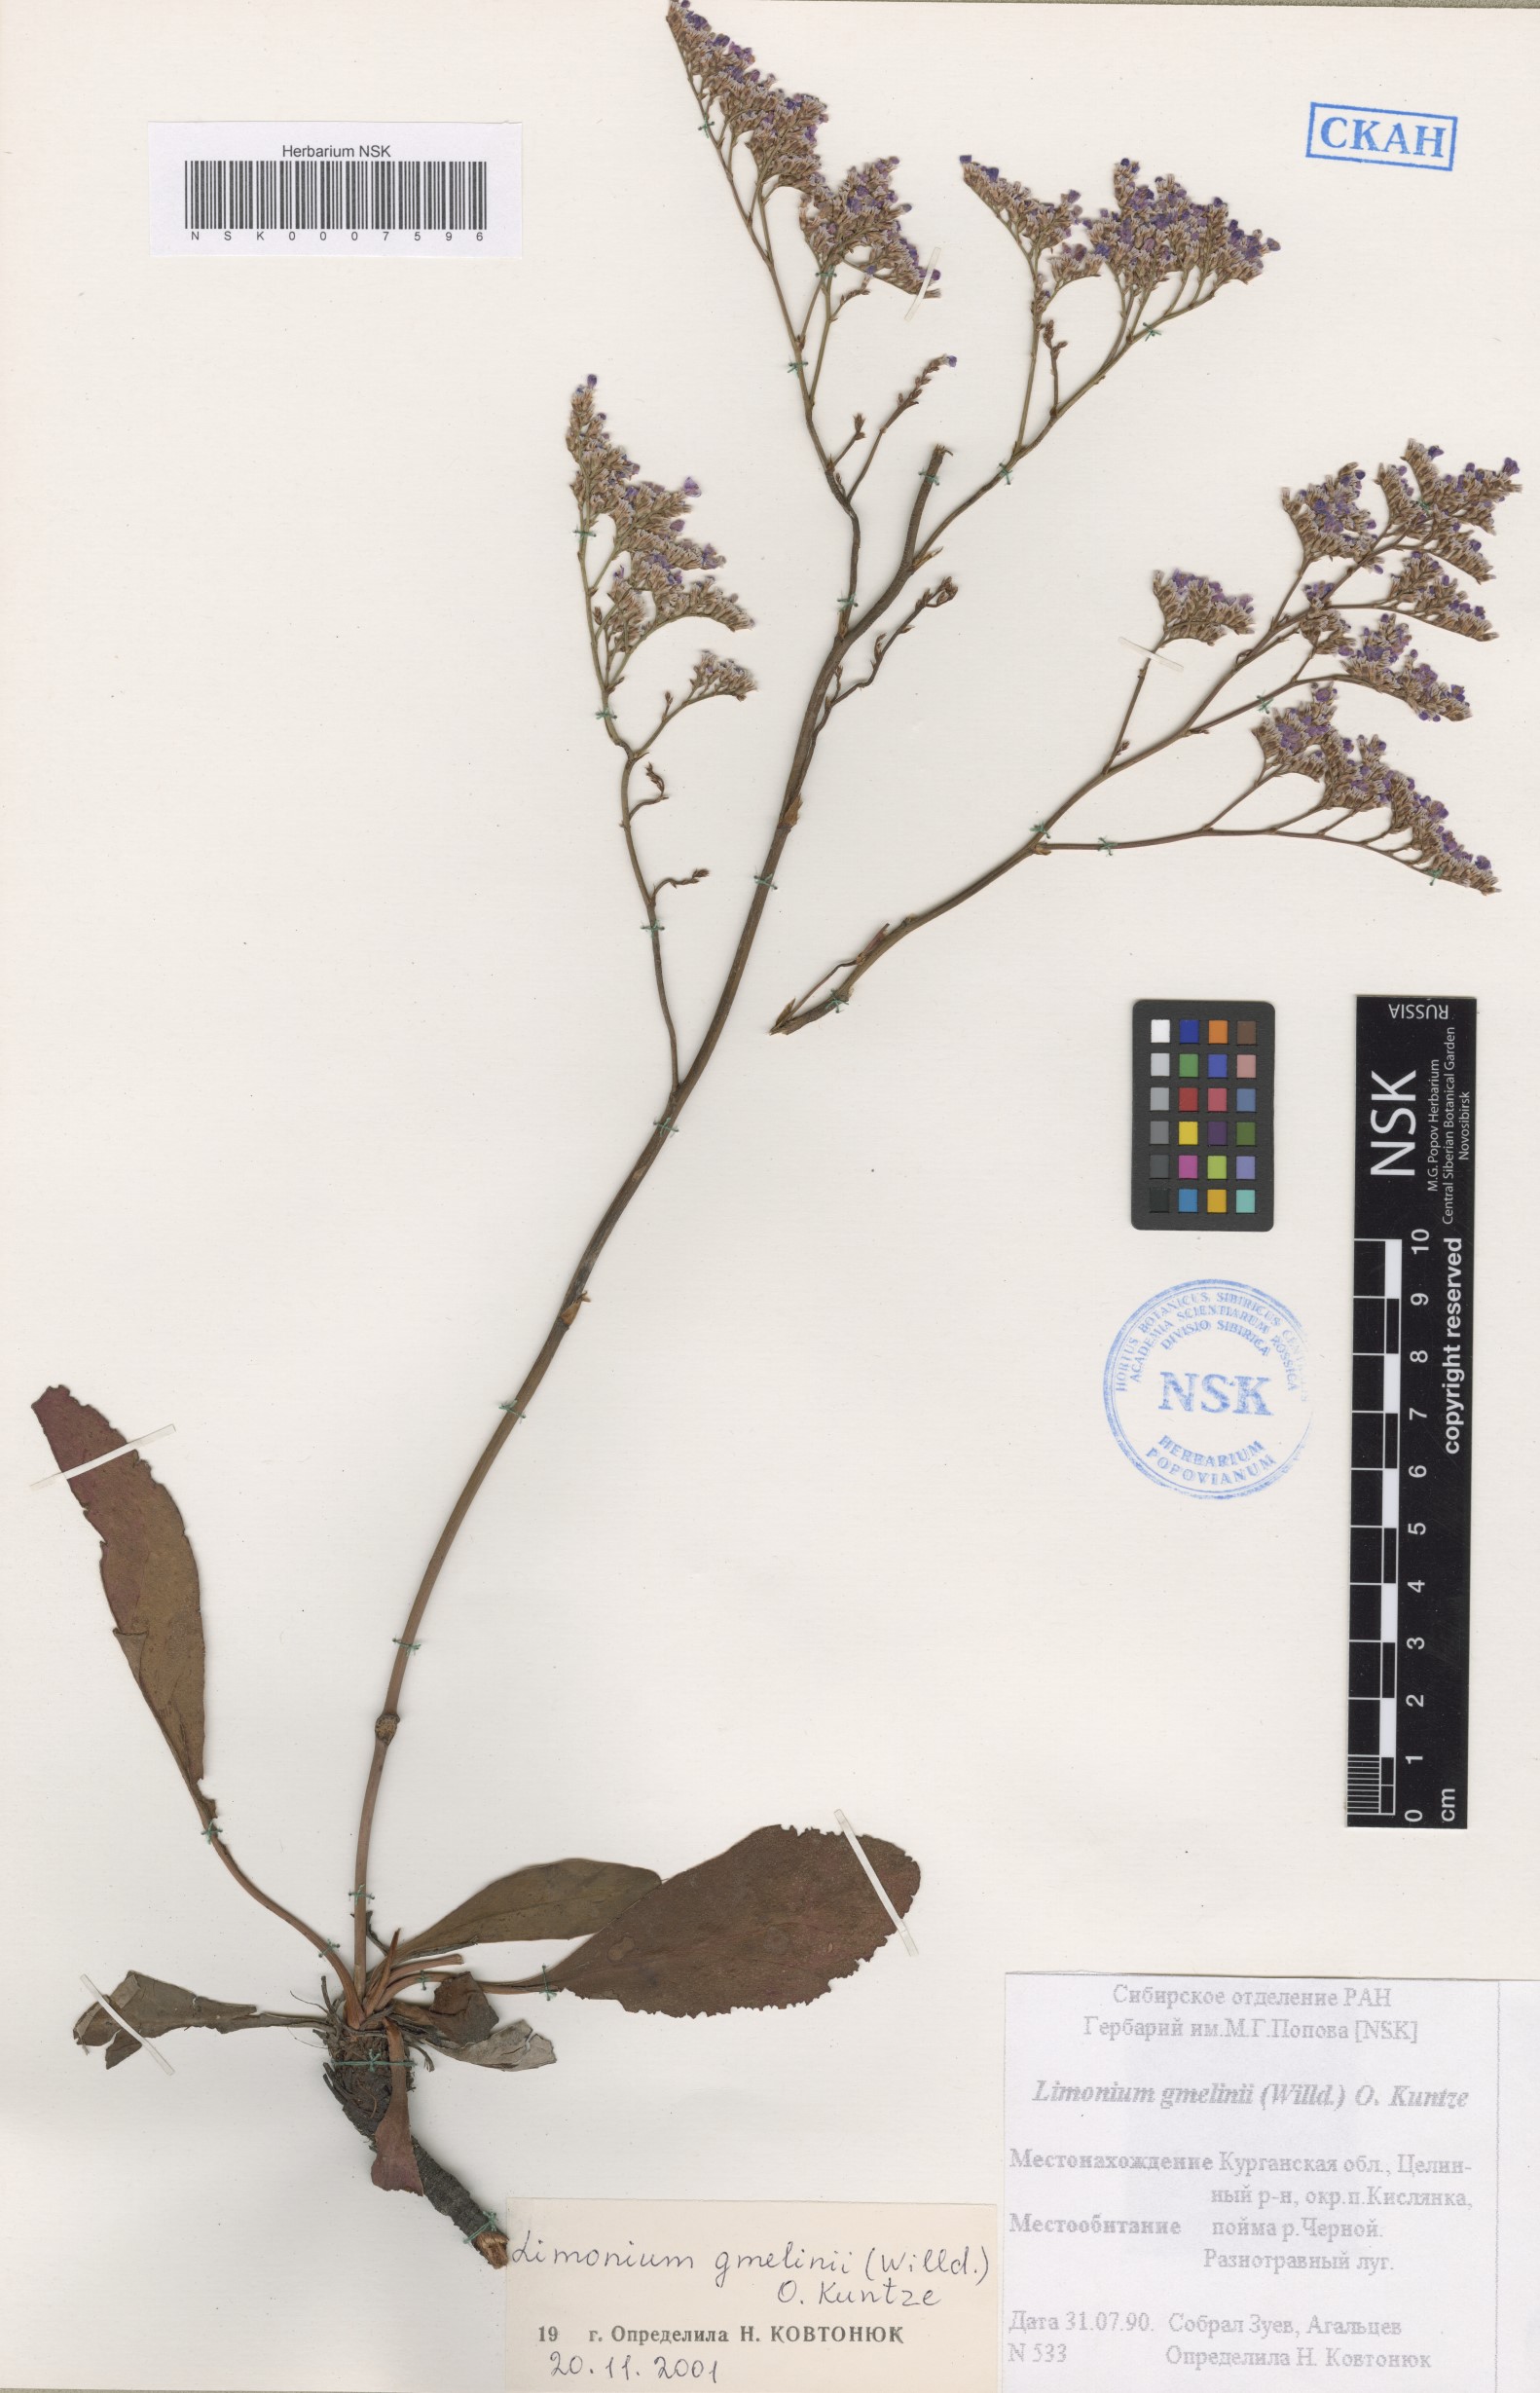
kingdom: Plantae
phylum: Tracheophyta
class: Magnoliopsida
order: Caryophyllales
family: Plumbaginaceae
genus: Limonium
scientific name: Limonium gmelini
